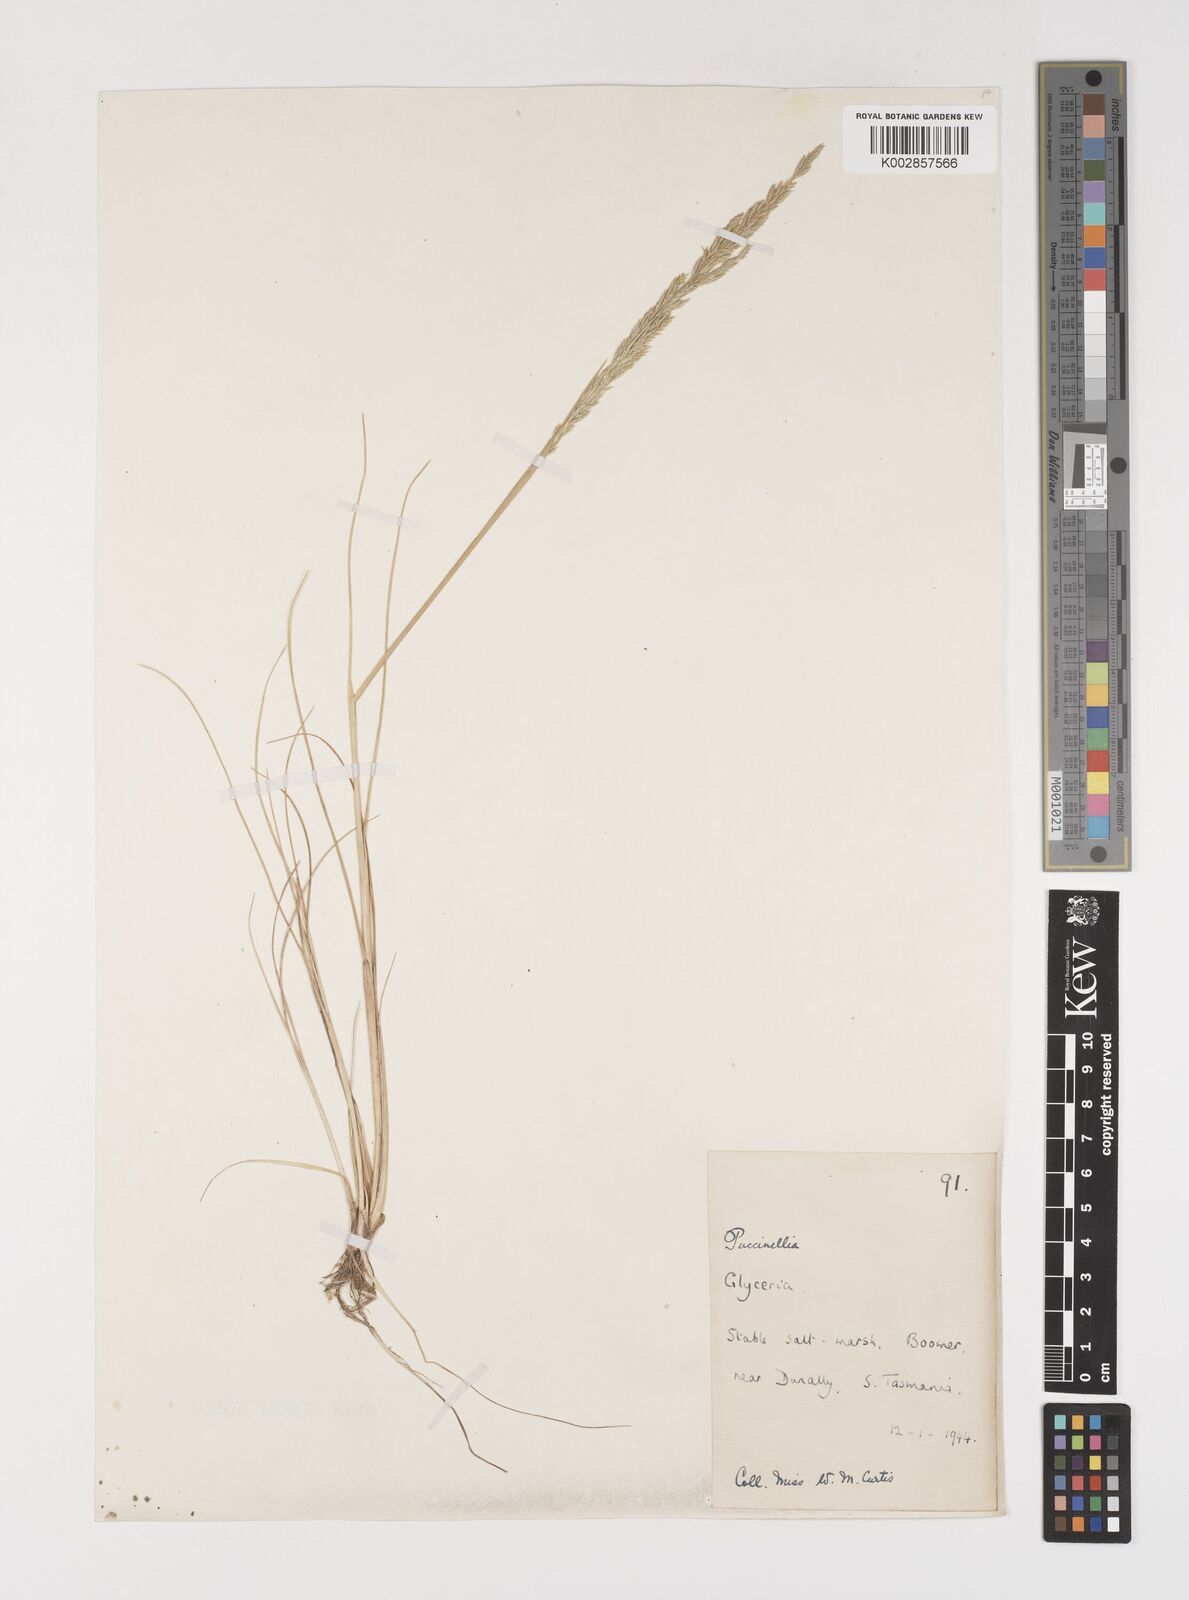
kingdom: Plantae
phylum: Tracheophyta
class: Liliopsida
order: Poales
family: Poaceae
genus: Puccinellia
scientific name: Puccinellia stricta
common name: Australian saltmarsh grass
